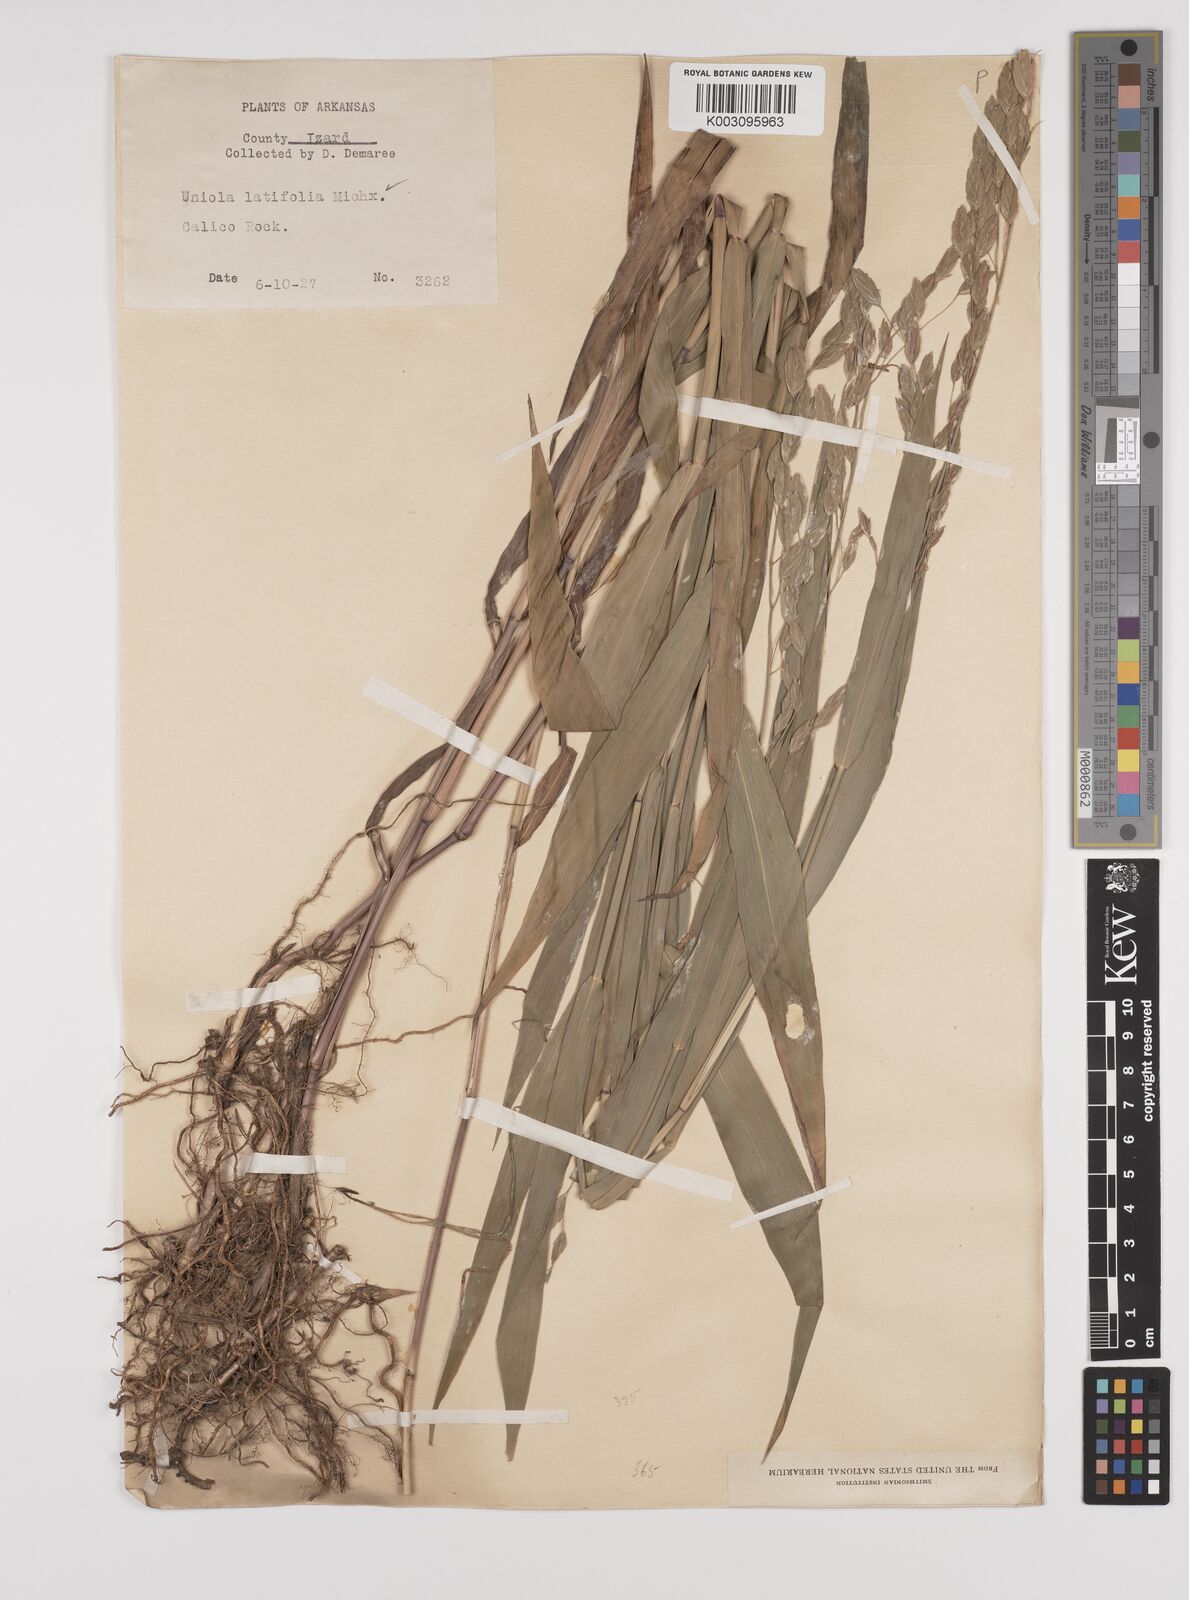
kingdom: Plantae
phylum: Tracheophyta
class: Liliopsida
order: Poales
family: Poaceae
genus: Chasmanthium
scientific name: Chasmanthium latifolium
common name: Broad-leaved chasmanthium
